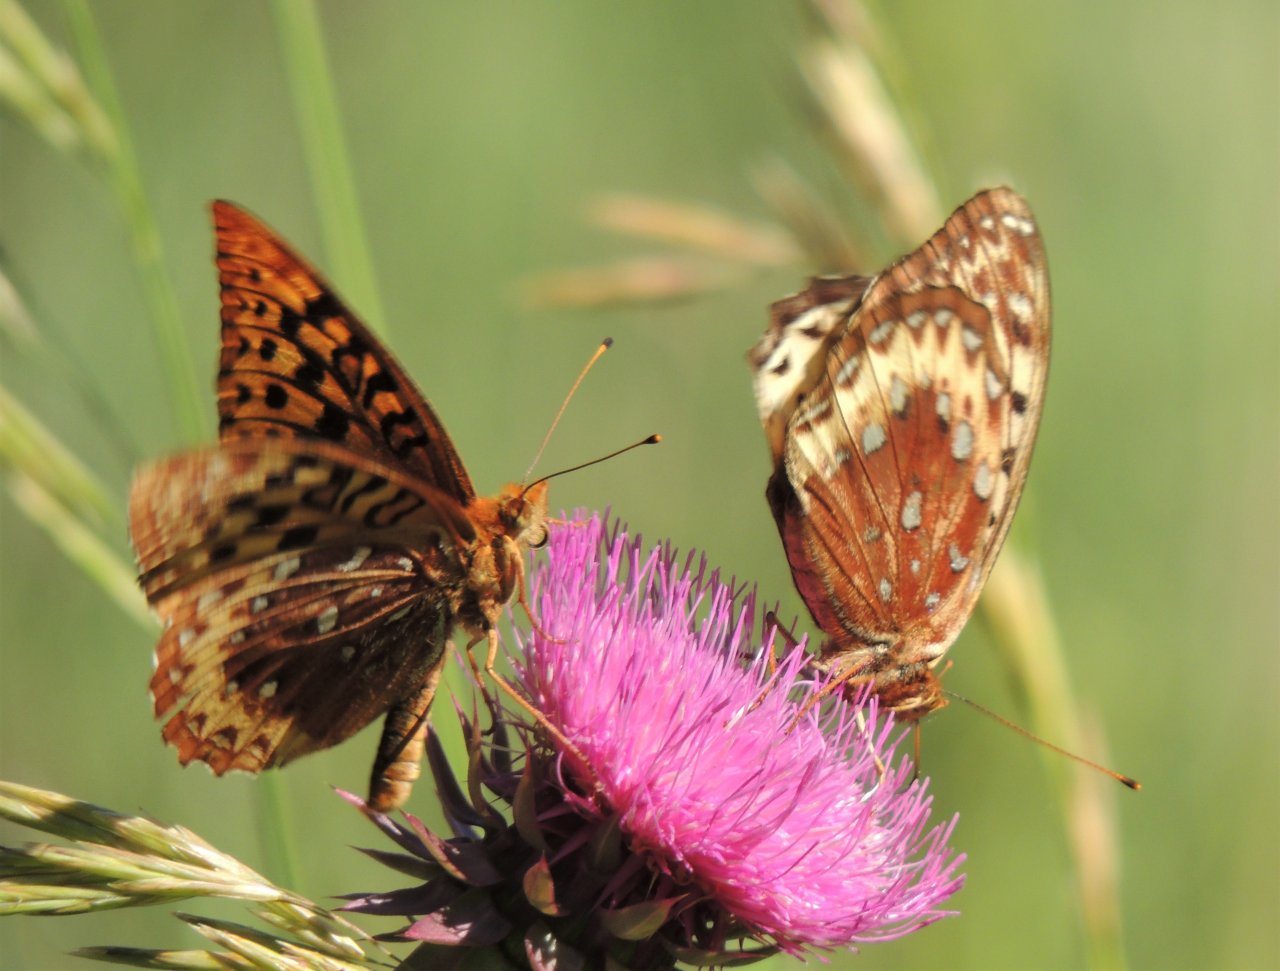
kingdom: Animalia
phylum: Arthropoda
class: Insecta
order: Lepidoptera
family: Nymphalidae
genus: Speyeria
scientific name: Speyeria cybele
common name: Great Spangled Fritillary
